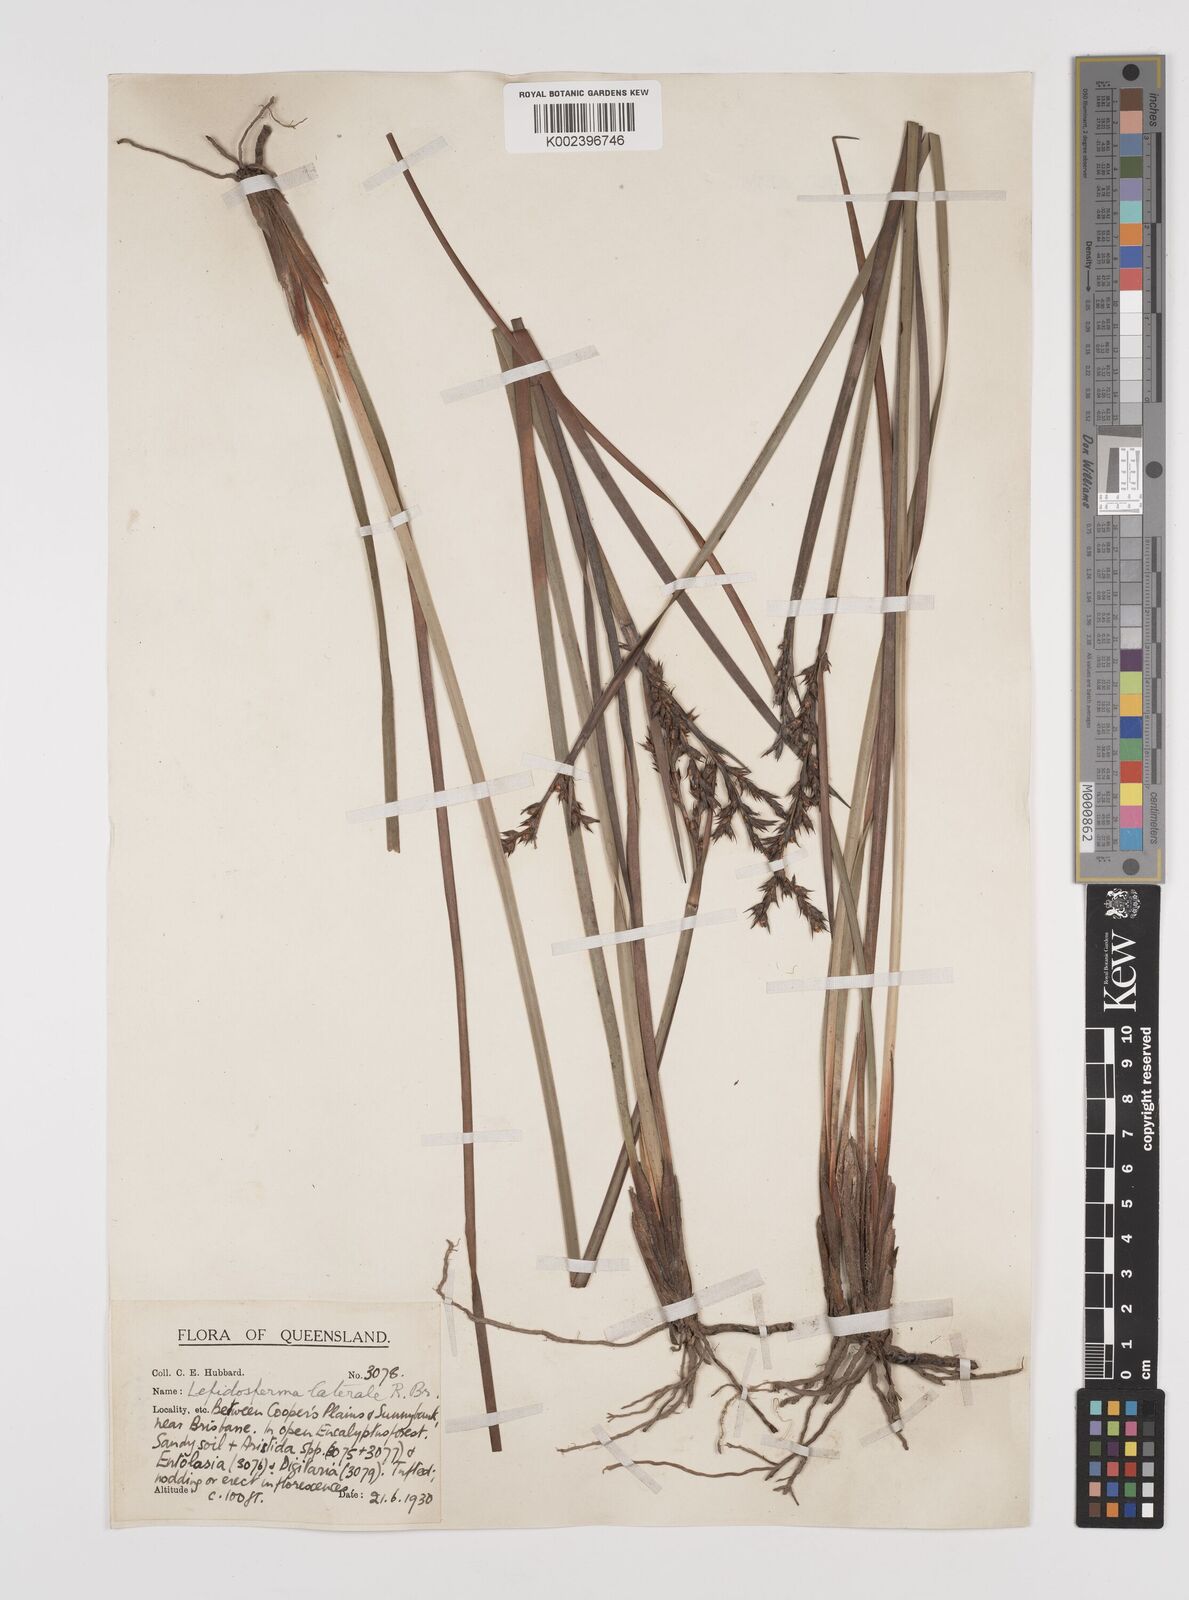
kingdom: Plantae
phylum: Tracheophyta
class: Liliopsida
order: Poales
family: Cyperaceae
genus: Lepidosperma
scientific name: Lepidosperma laterale
